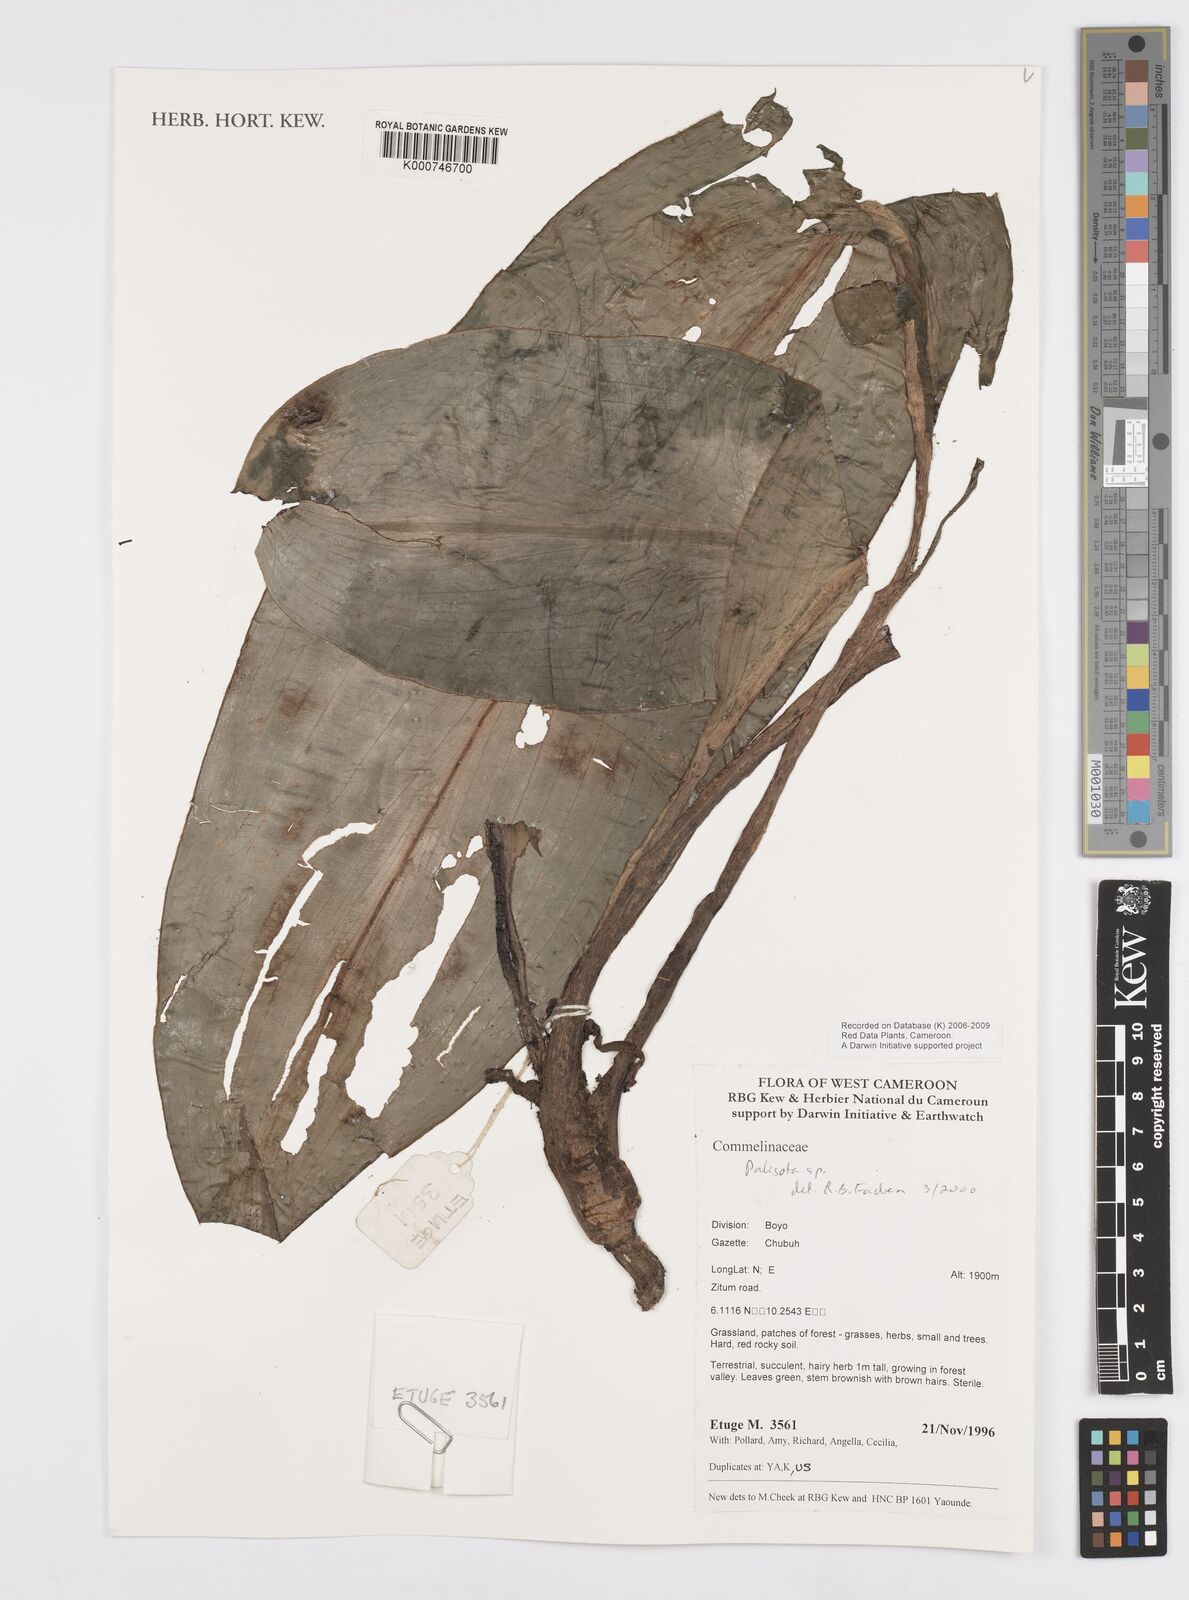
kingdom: Plantae
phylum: Tracheophyta
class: Liliopsida
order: Commelinales
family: Commelinaceae
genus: Palisota
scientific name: Palisota
